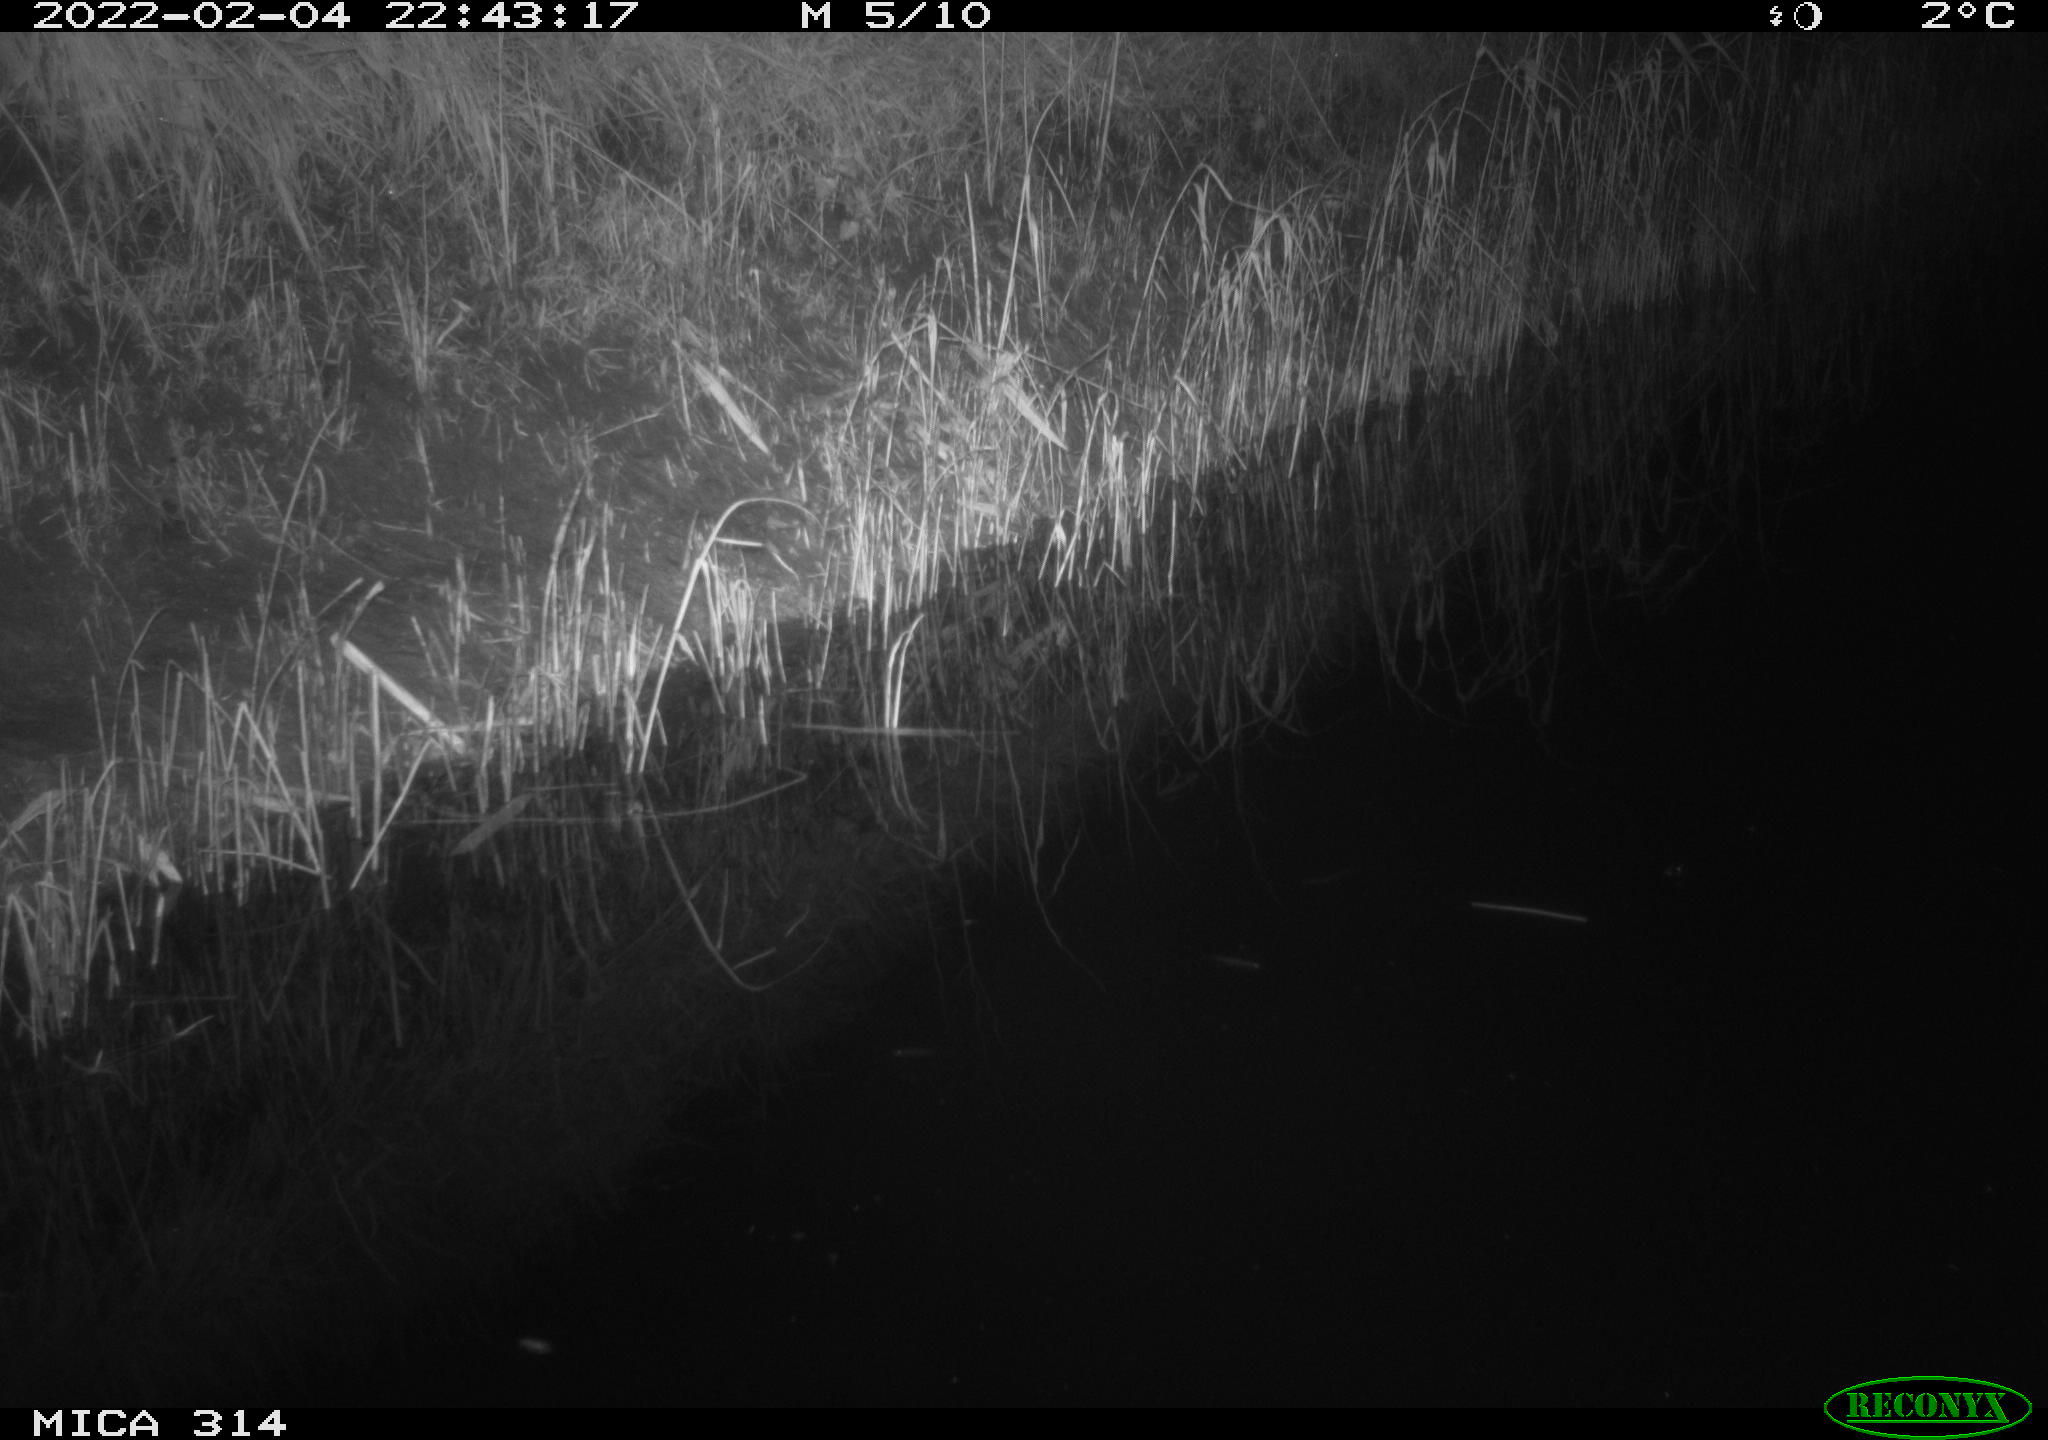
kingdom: Animalia
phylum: Chordata
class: Mammalia
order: Rodentia
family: Muridae
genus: Rattus
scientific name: Rattus norvegicus
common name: Brown rat
